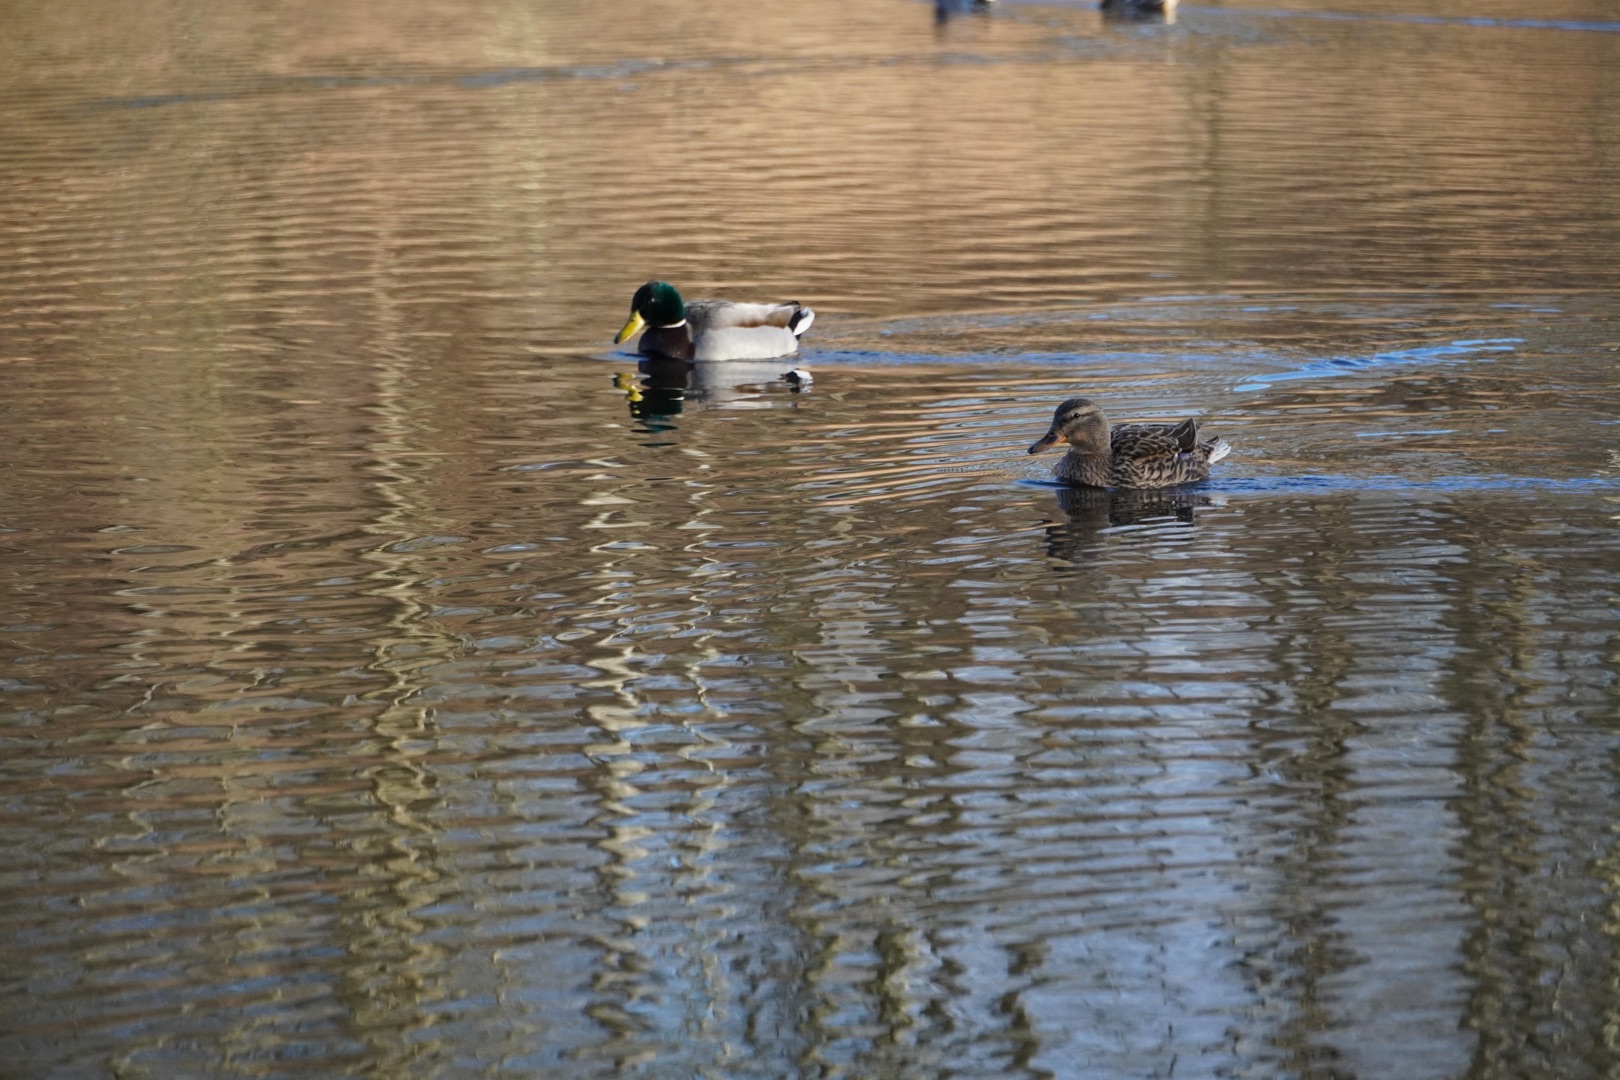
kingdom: Animalia
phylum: Chordata
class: Aves
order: Anseriformes
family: Anatidae
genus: Anas
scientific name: Anas platyrhynchos
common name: Gråand
